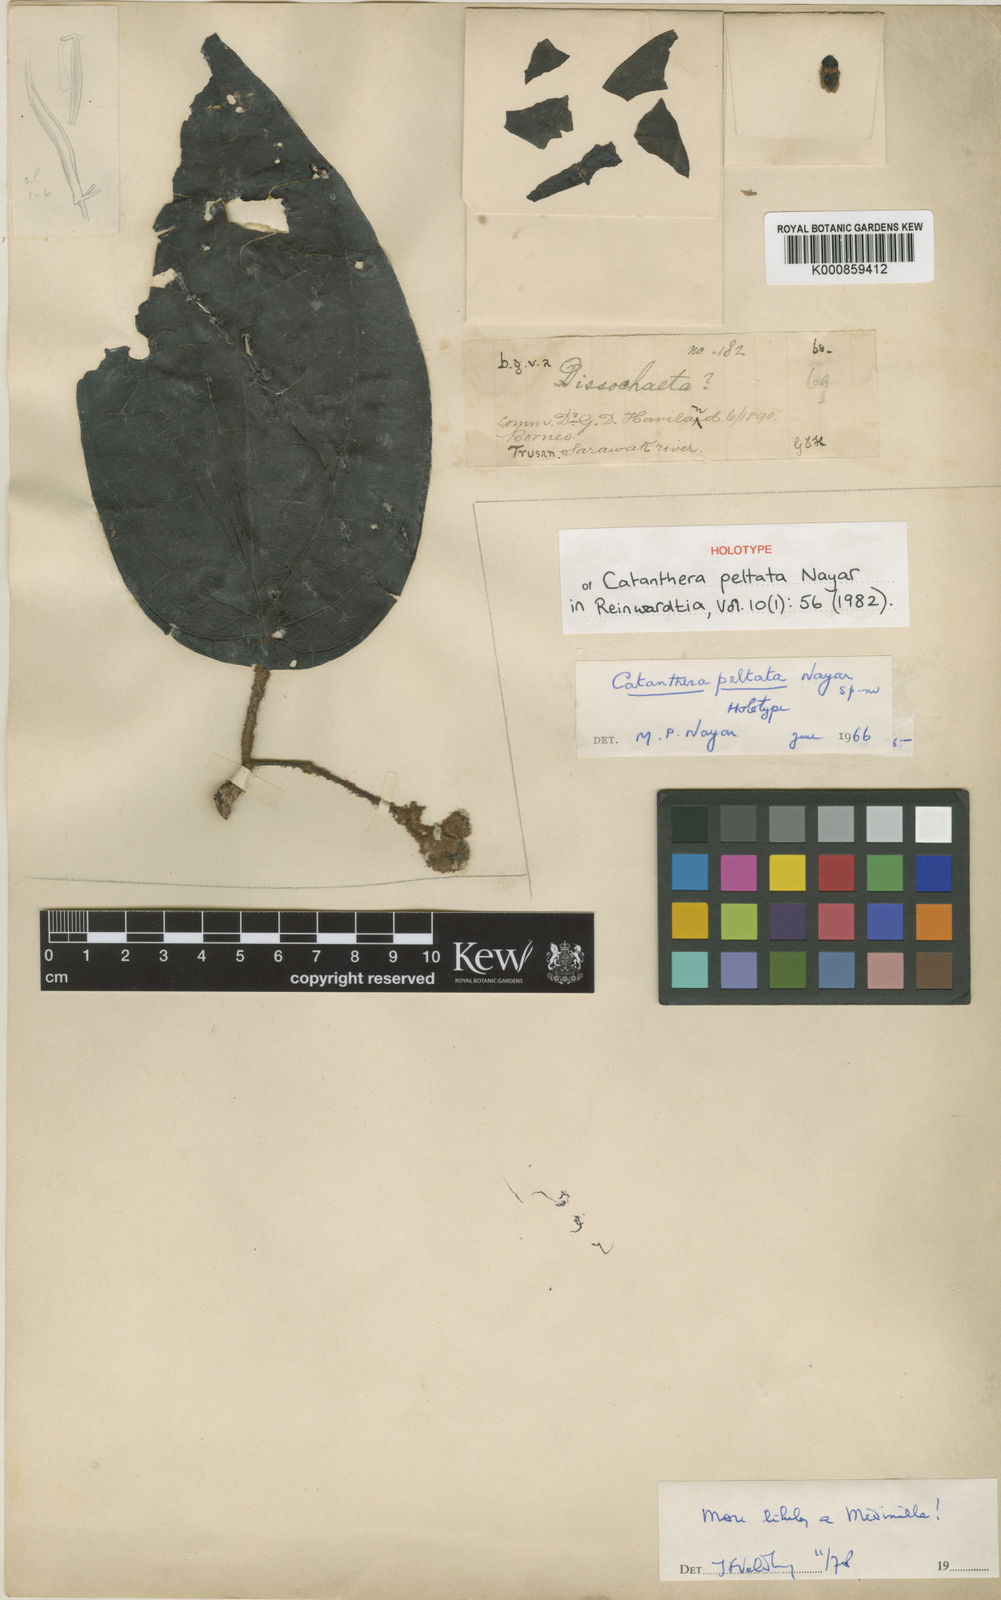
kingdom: Plantae
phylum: Tracheophyta
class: Magnoliopsida
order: Myrtales
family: Melastomataceae
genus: Catanthera
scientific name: Catanthera peltata
